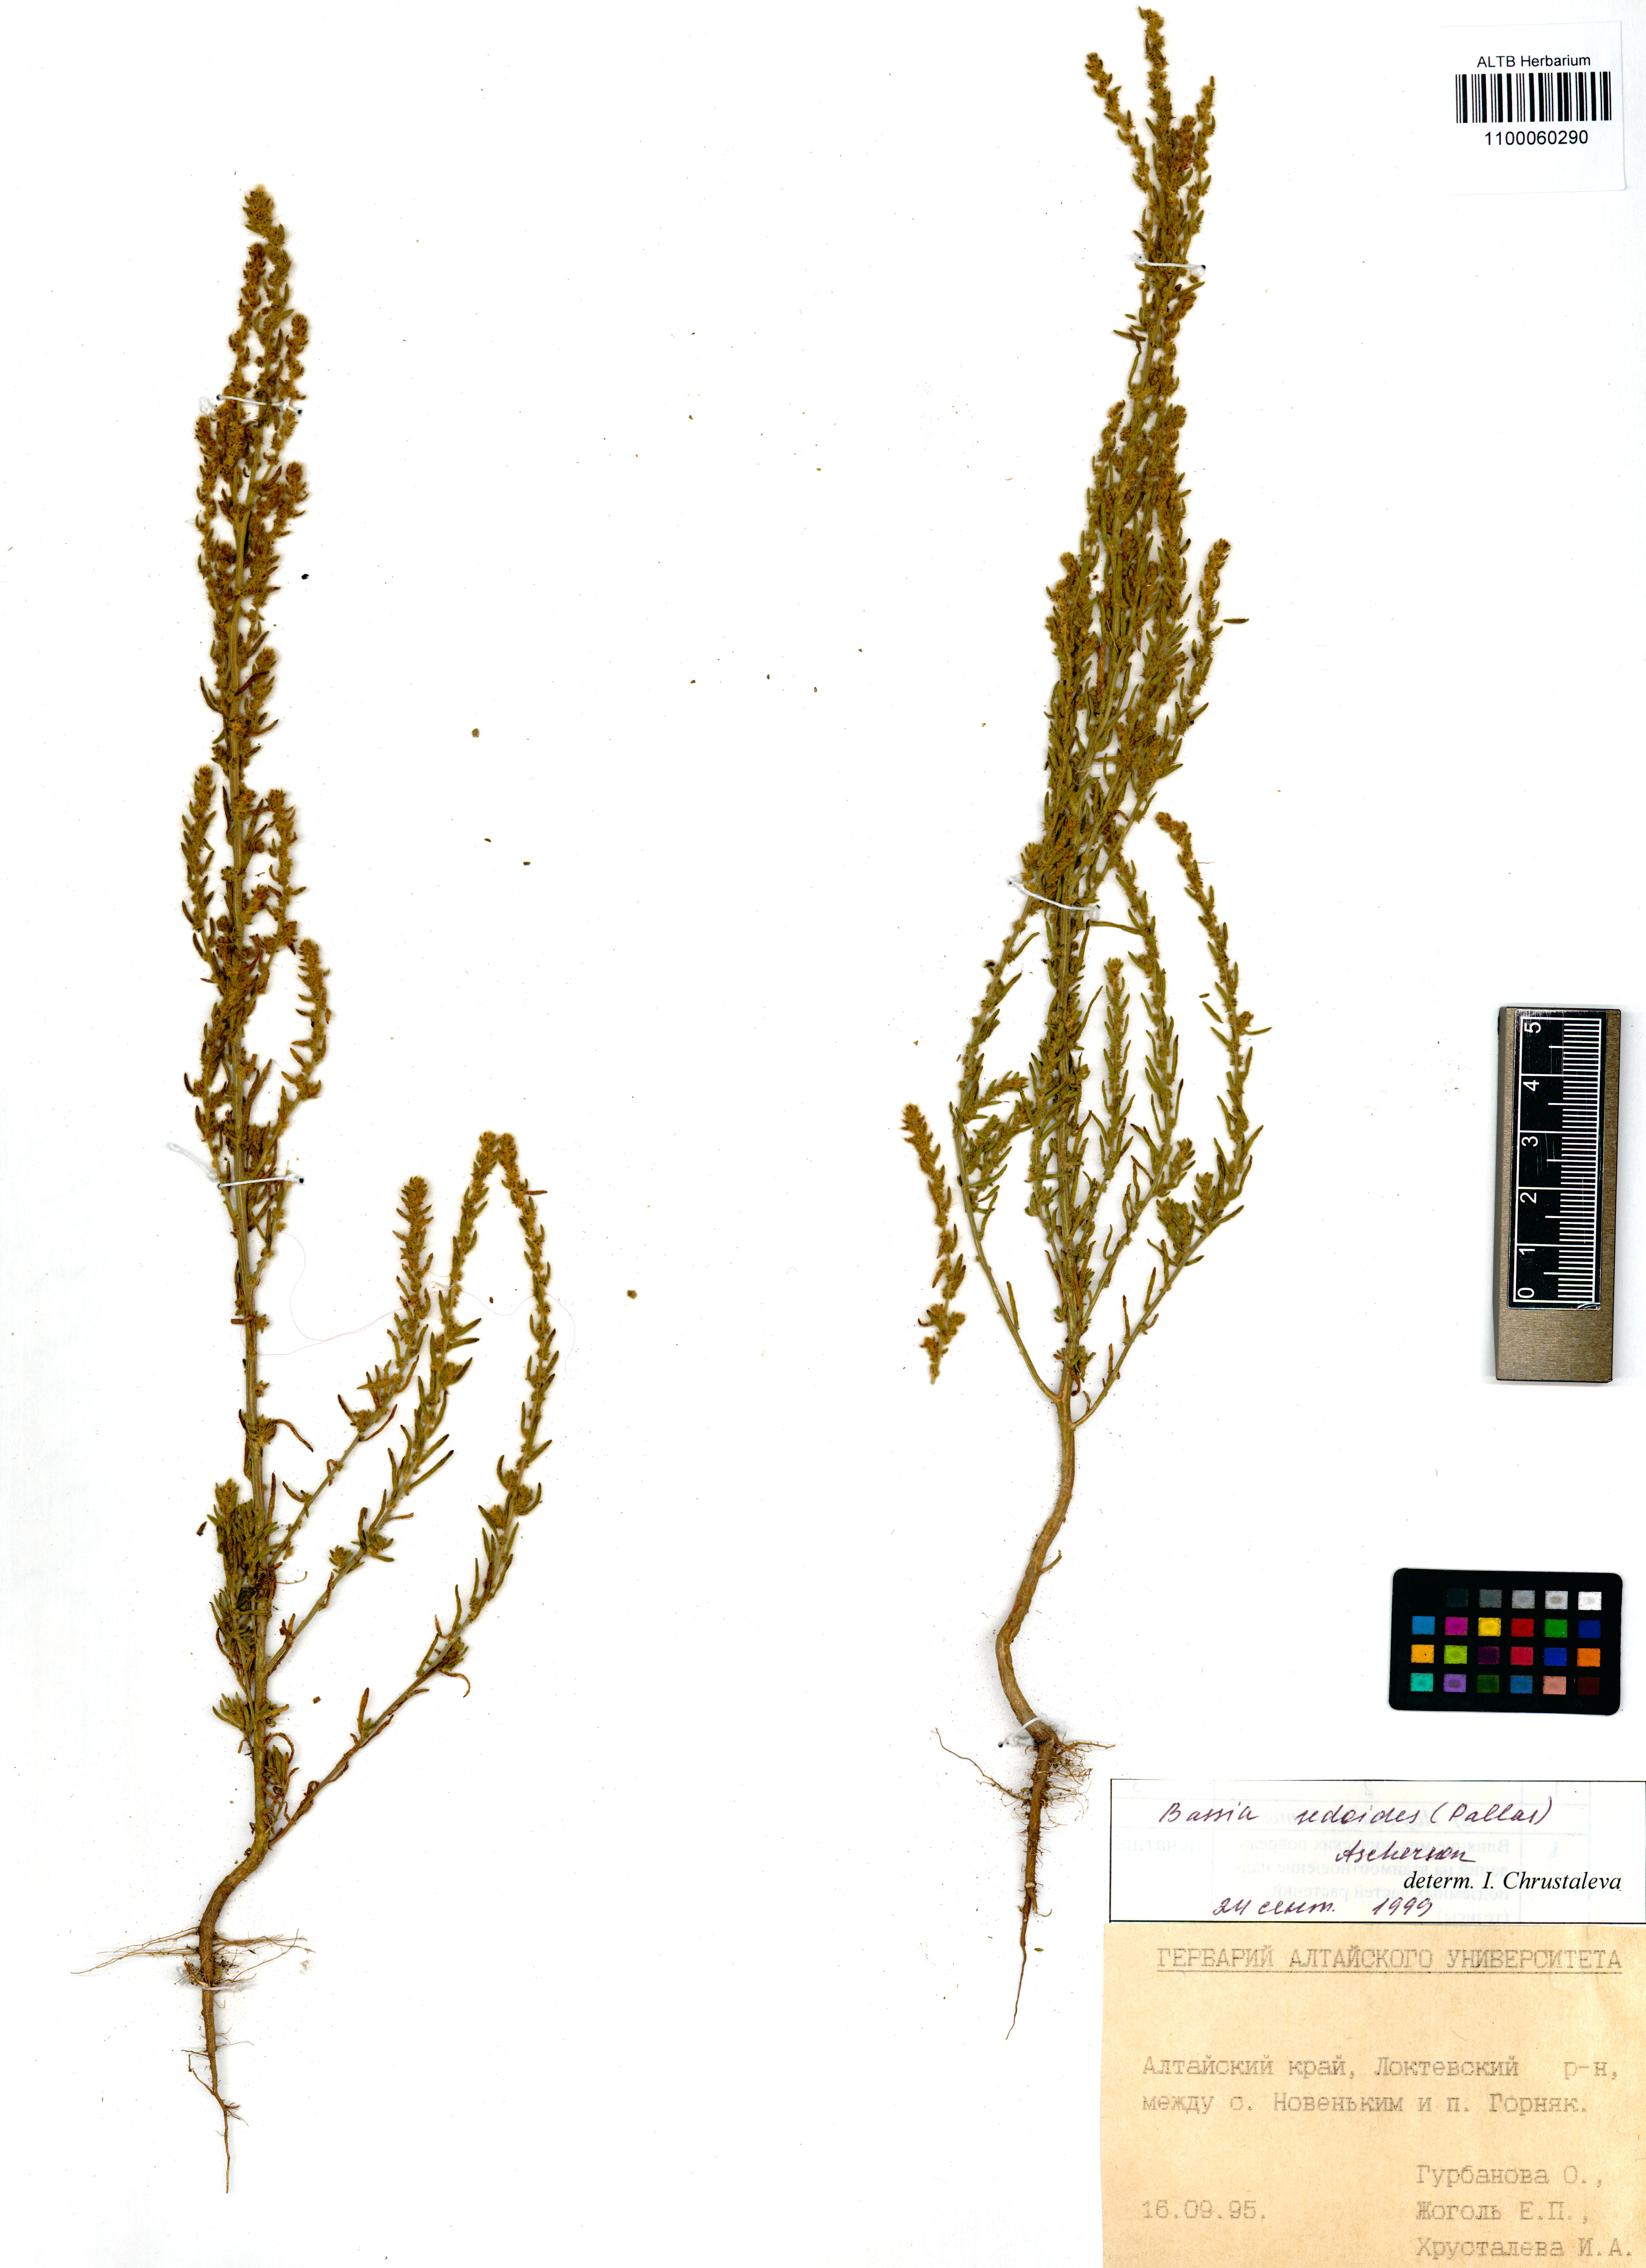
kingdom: Plantae
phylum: Tracheophyta
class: Magnoliopsida
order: Caryophyllales
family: Amaranthaceae
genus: Sedobassia
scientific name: Sedobassia sedoides
